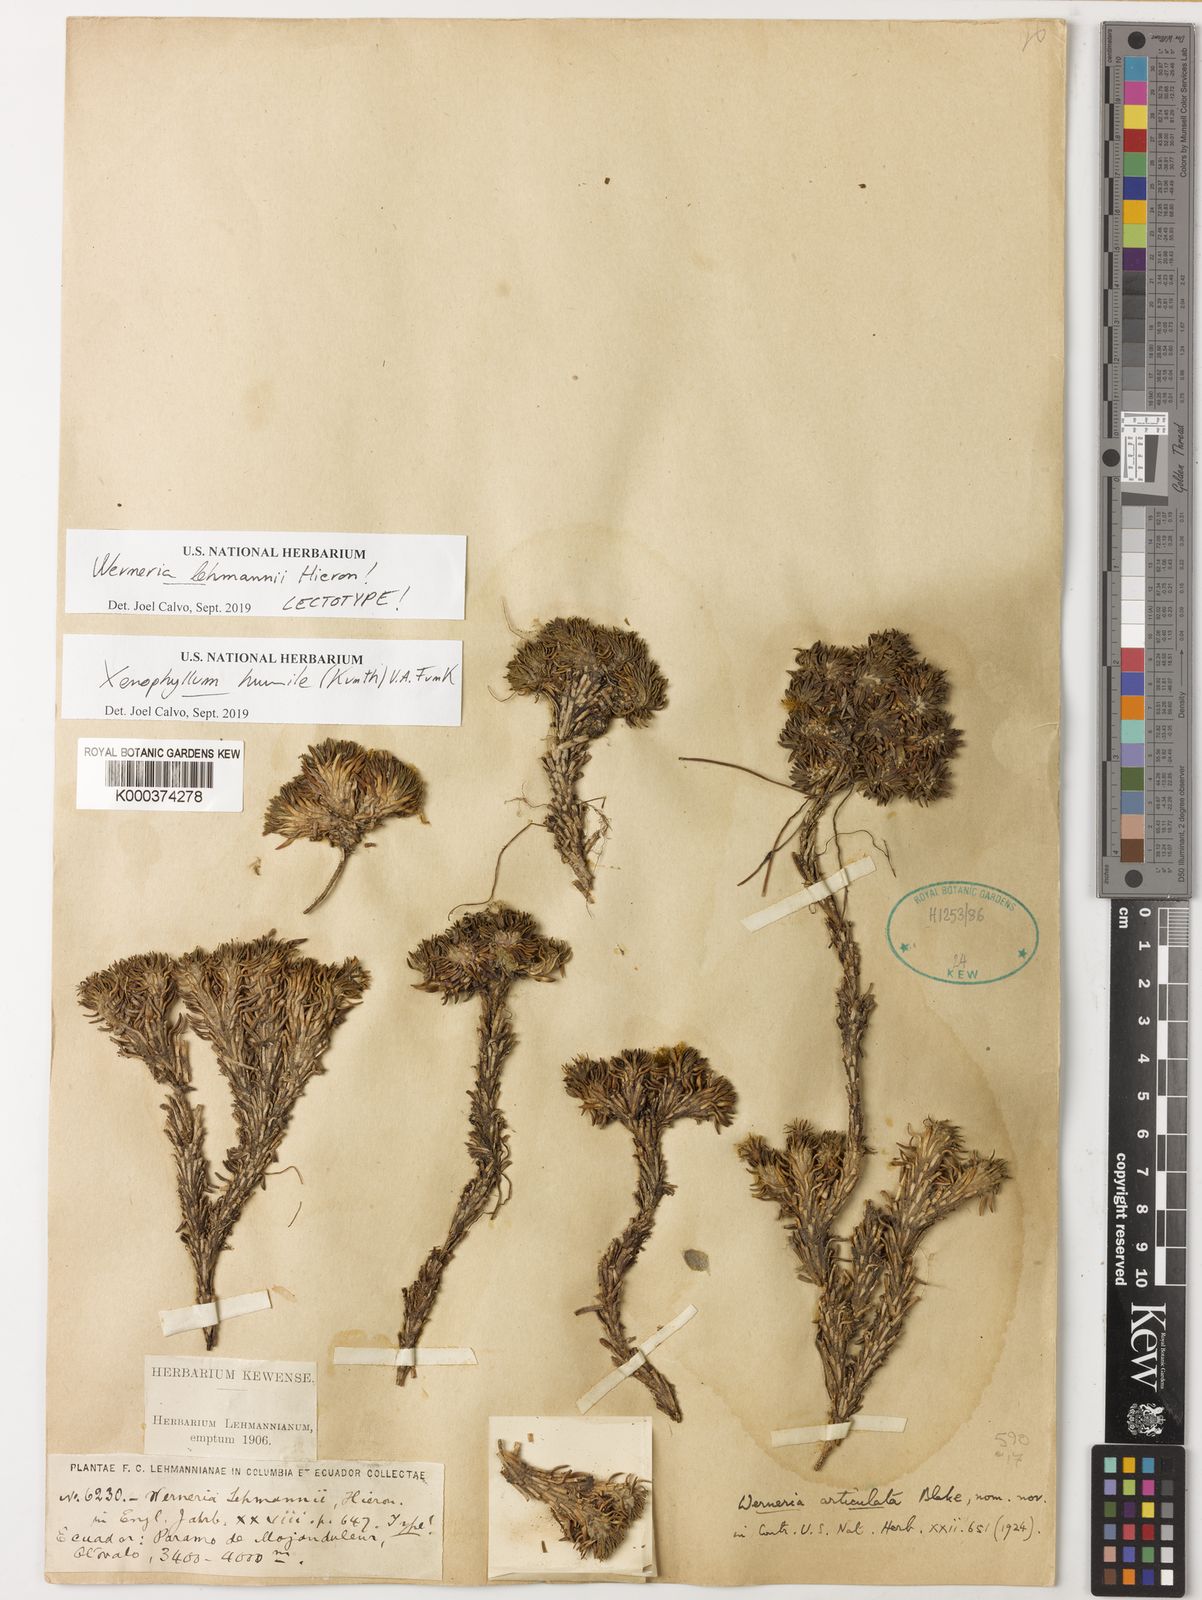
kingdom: Plantae
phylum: Tracheophyta
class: Magnoliopsida
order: Asterales
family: Asteraceae
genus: Werneria
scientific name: Werneria humilis
